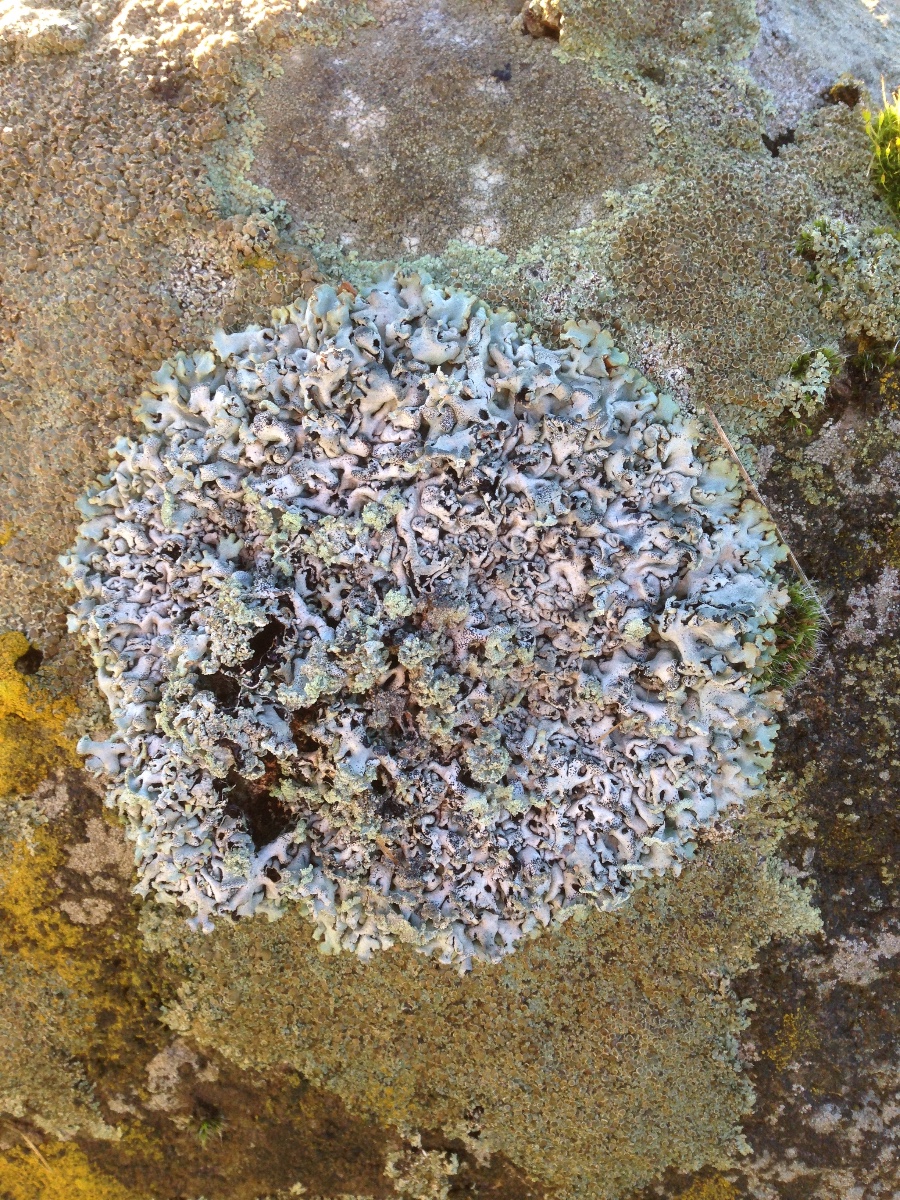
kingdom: Fungi
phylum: Ascomycota
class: Lecanoromycetes
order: Lecanorales
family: Parmeliaceae
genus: Hypogymnia
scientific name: Hypogymnia physodes
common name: almindelig kvistlav
